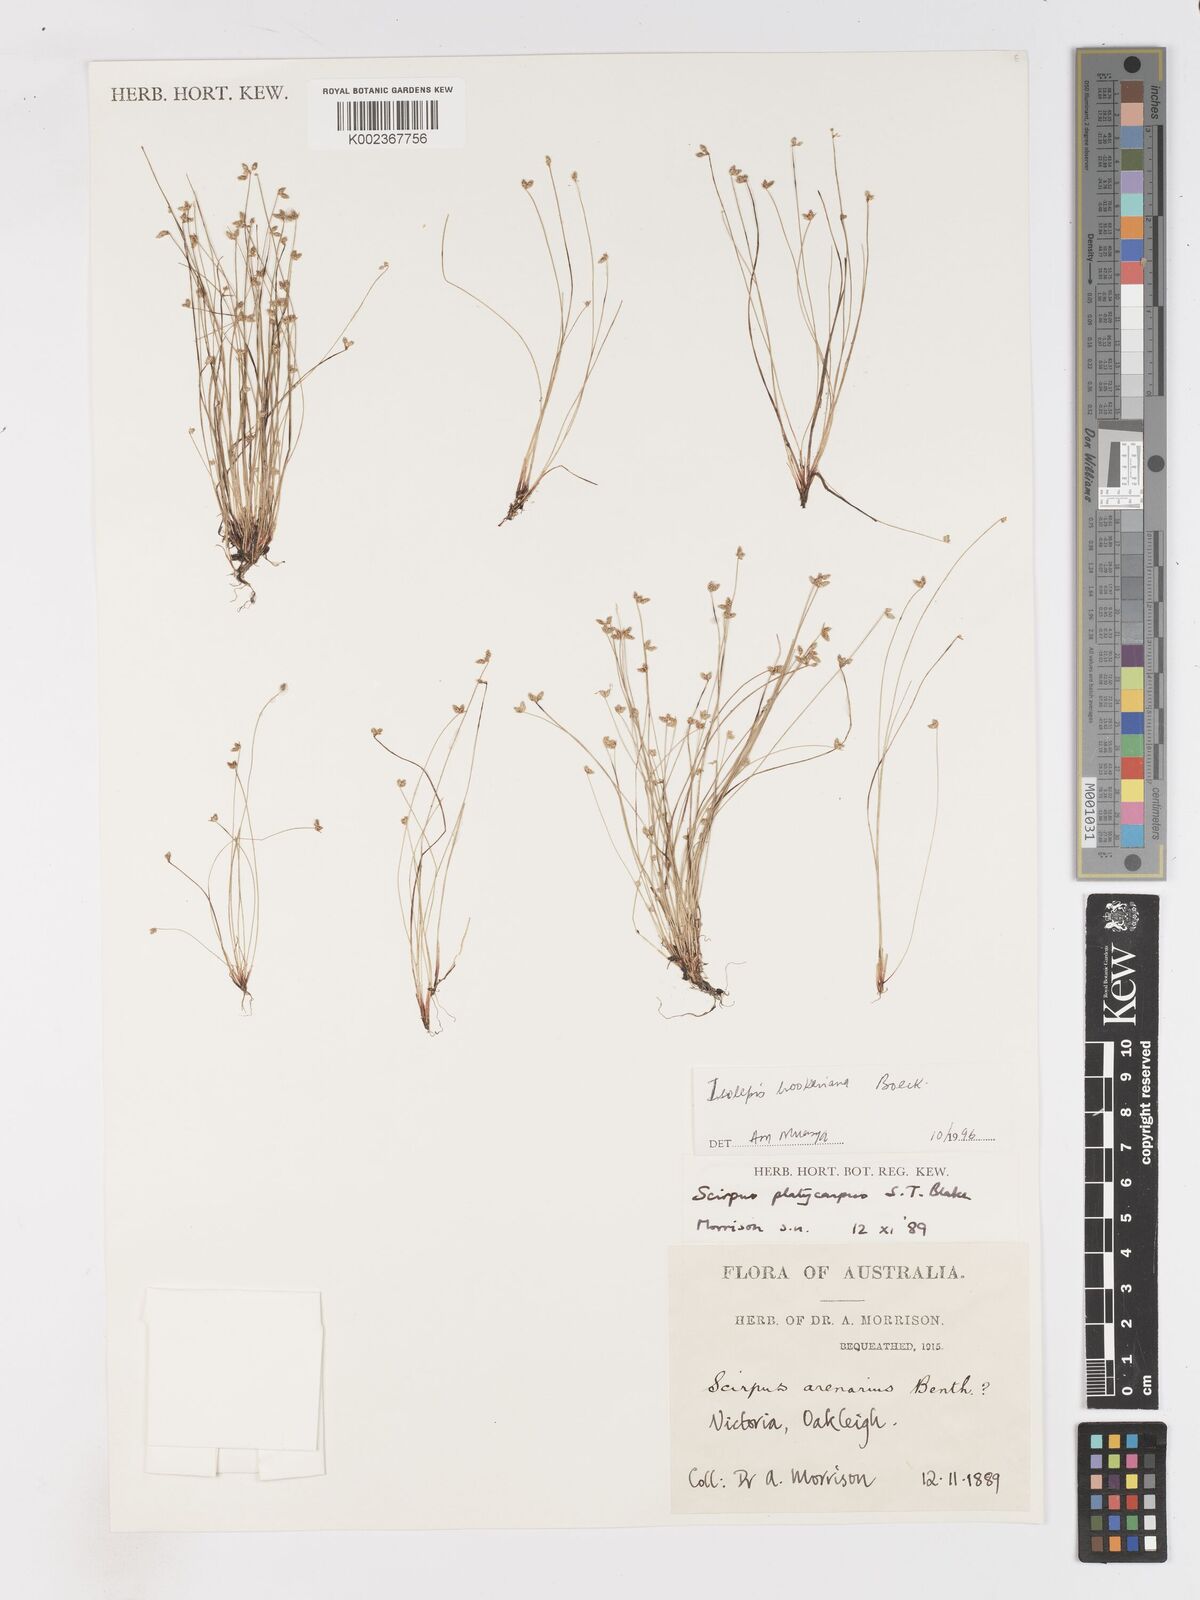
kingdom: Plantae
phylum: Tracheophyta
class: Liliopsida
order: Poales
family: Cyperaceae
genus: Isolepis
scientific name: Isolepis multicaulis
